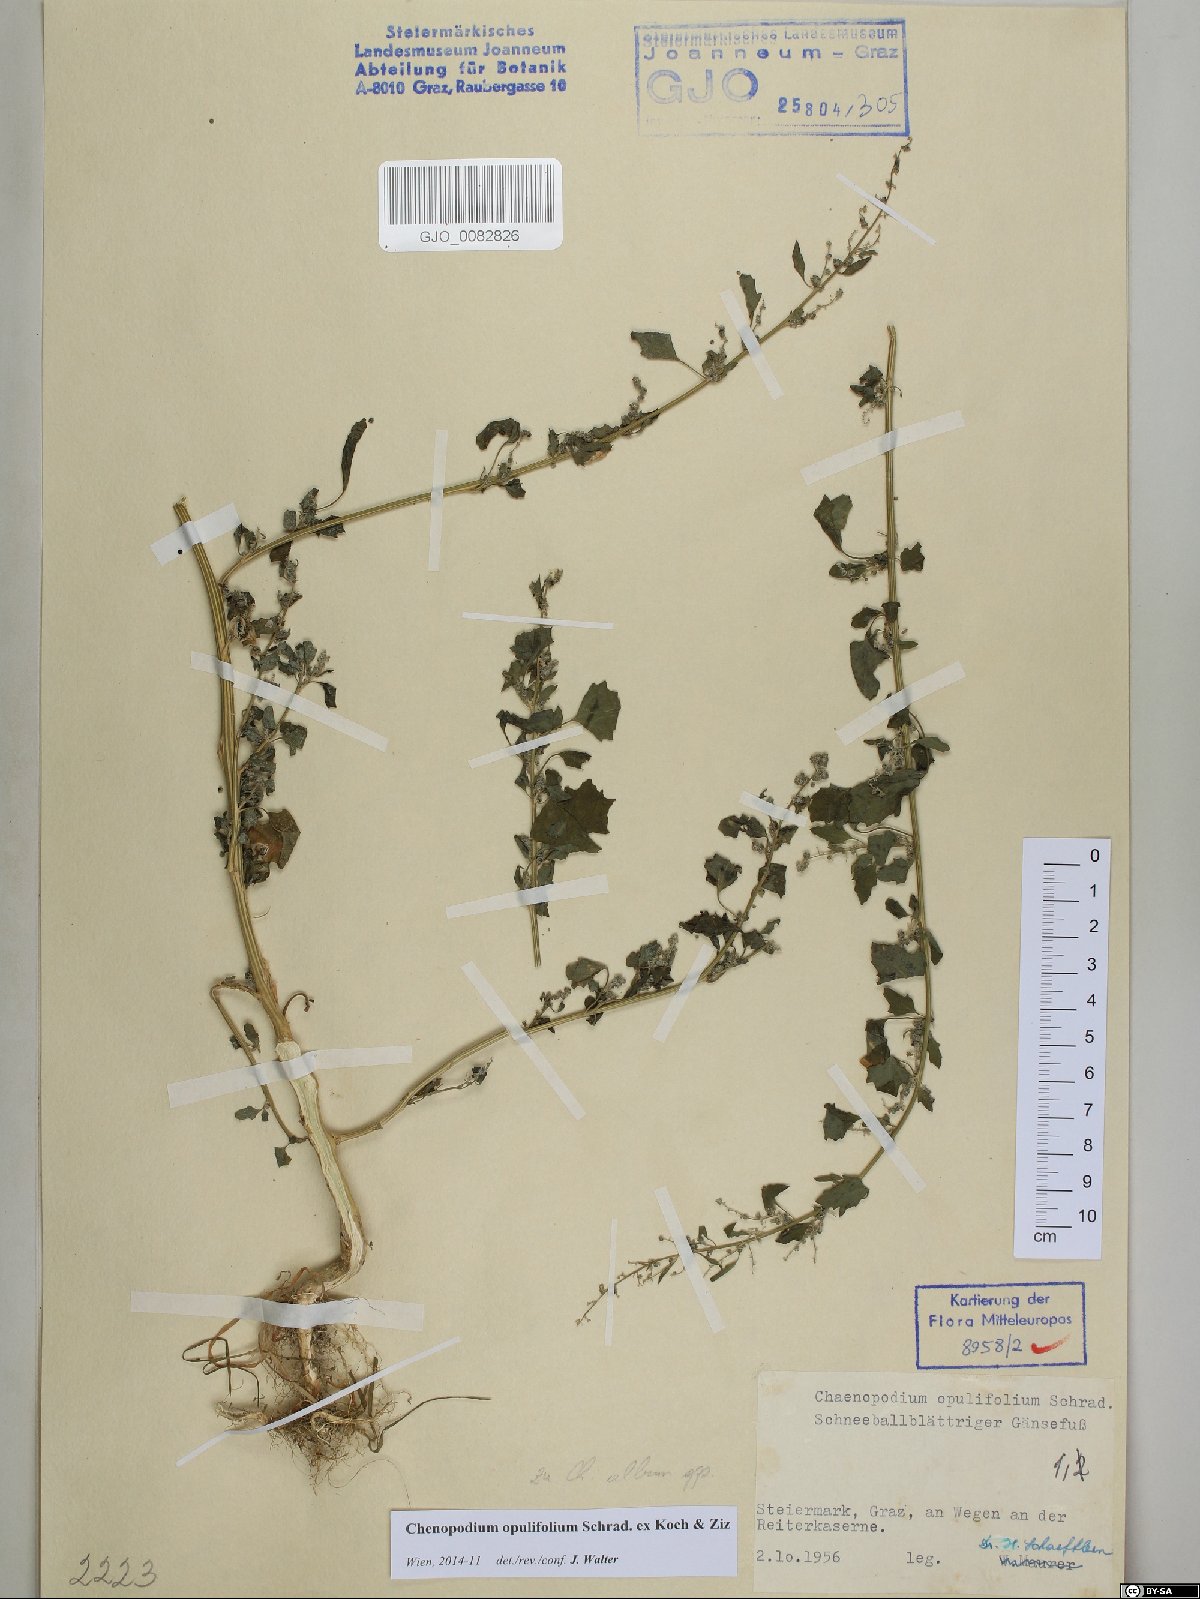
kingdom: Plantae
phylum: Tracheophyta
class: Magnoliopsida
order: Caryophyllales
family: Amaranthaceae
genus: Chenopodium
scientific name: Chenopodium opulifolium
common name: Grey goosefoot
